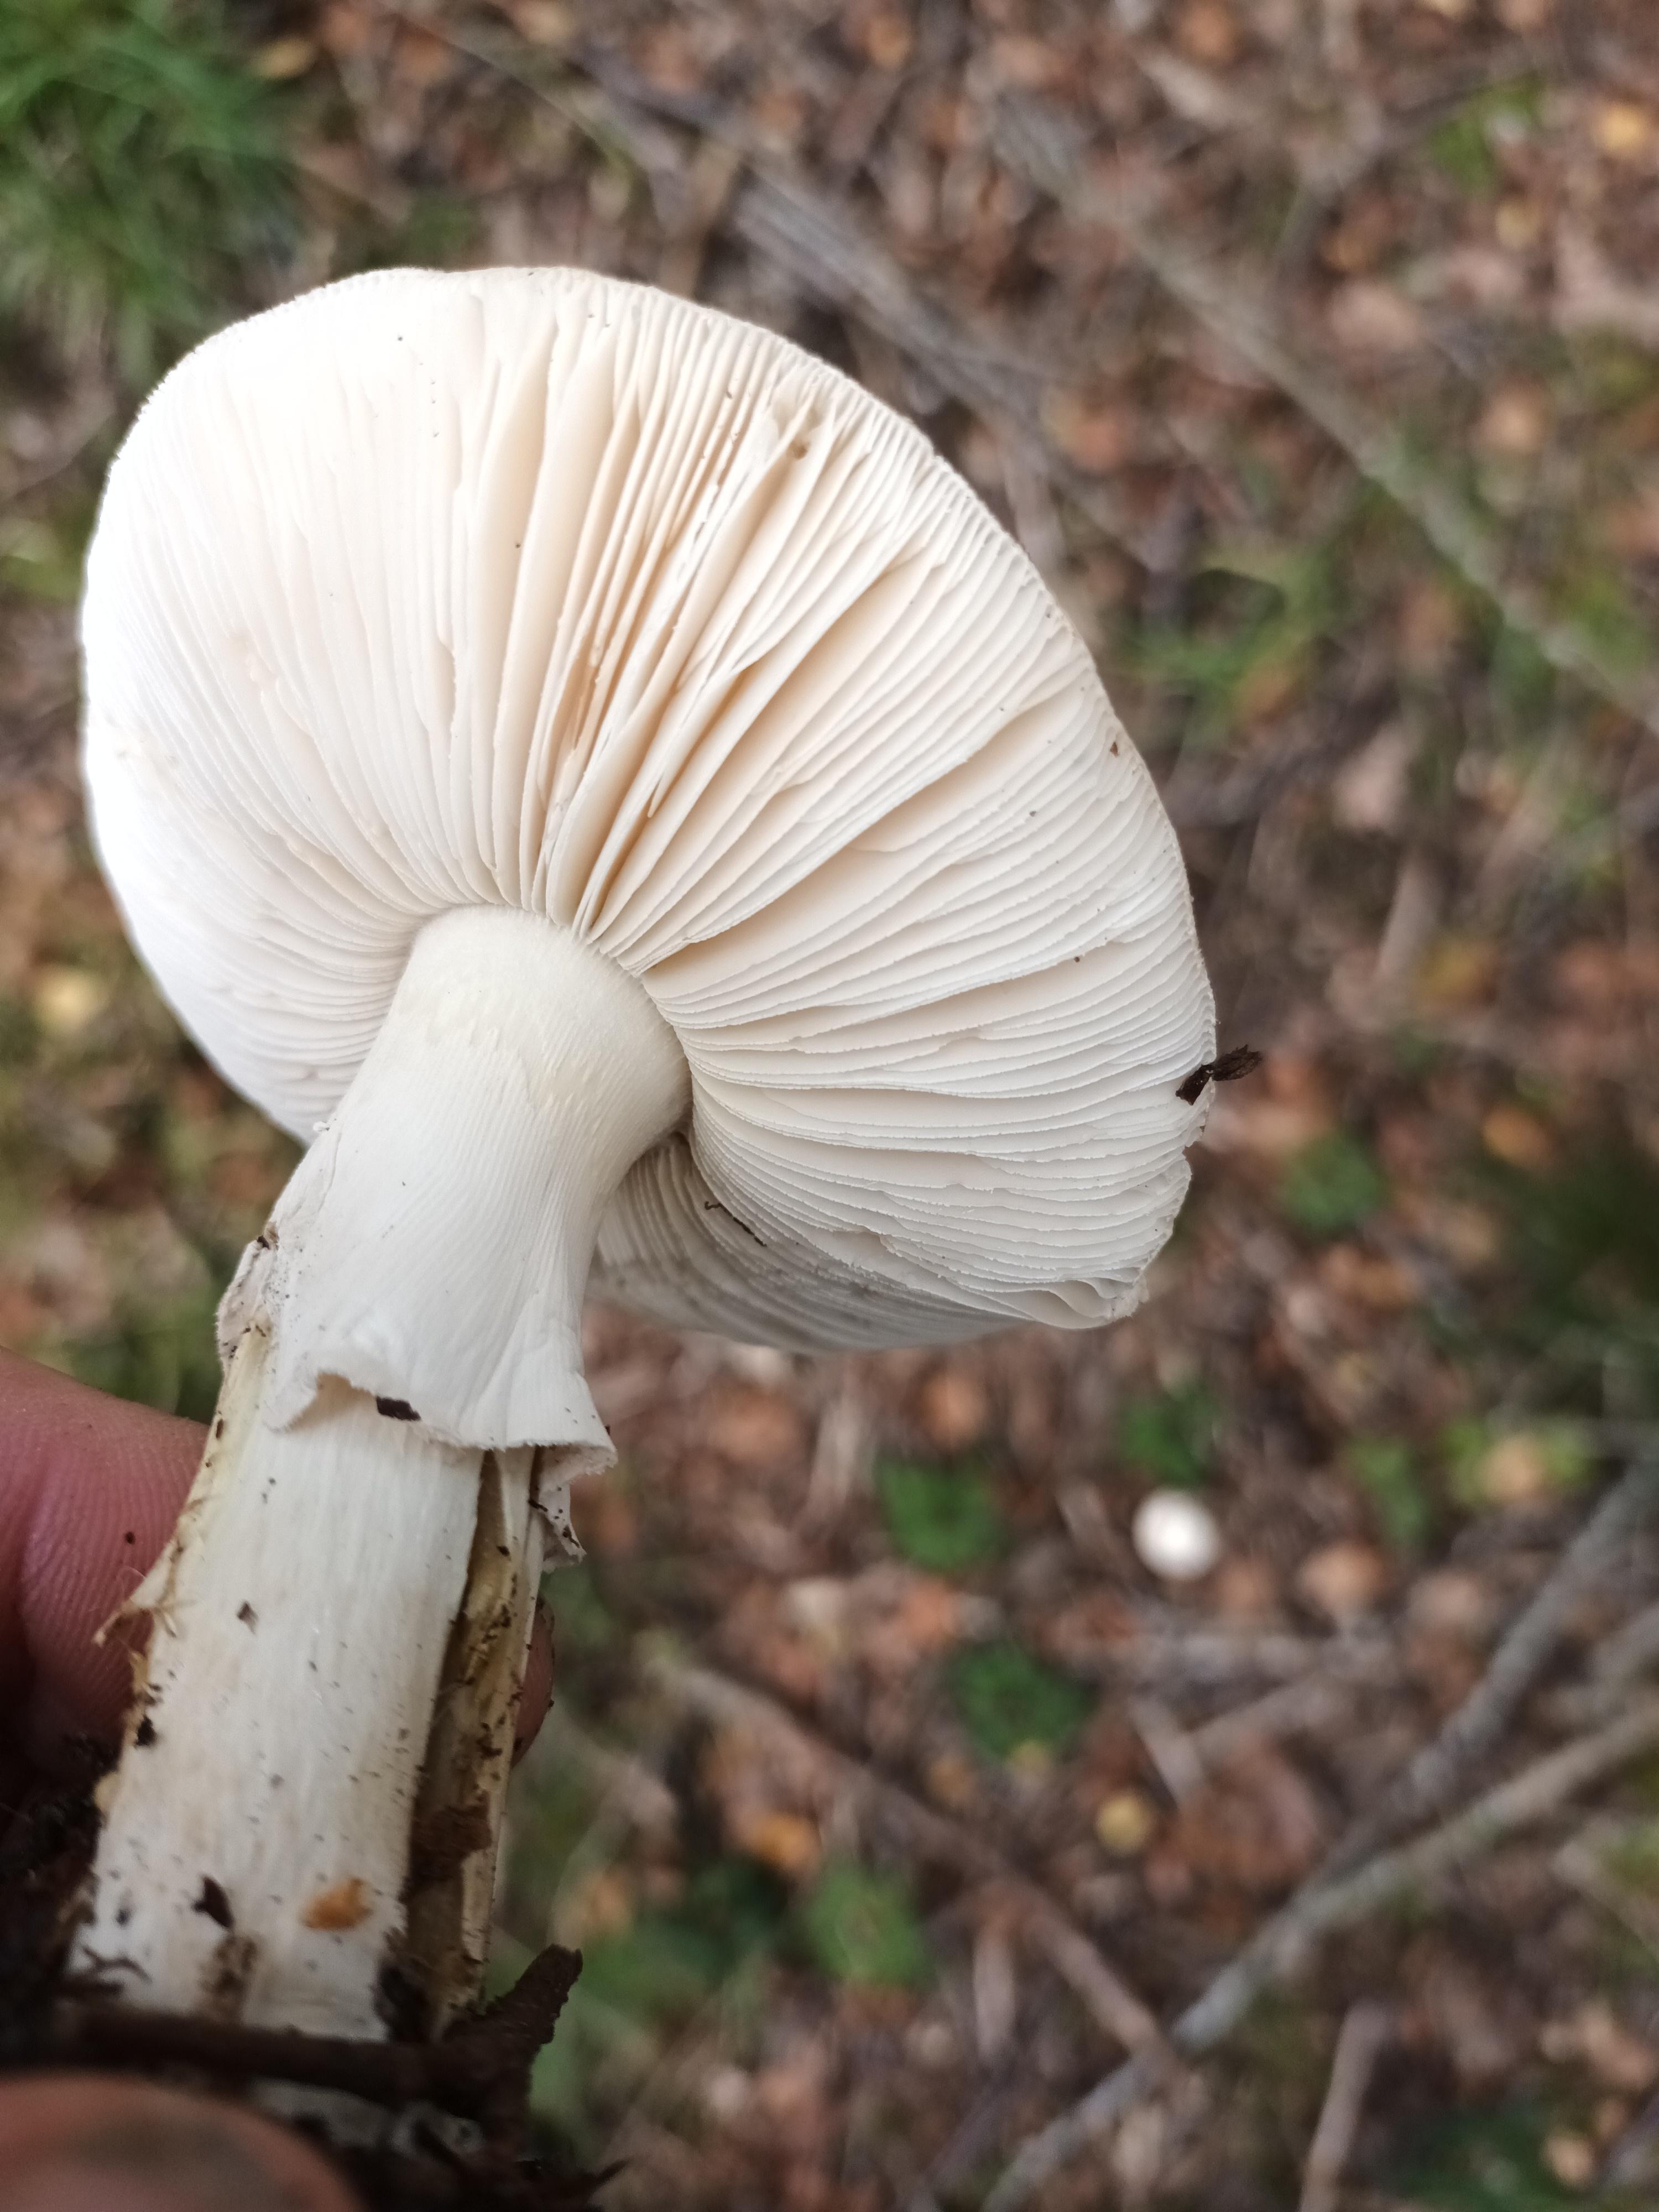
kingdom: Fungi
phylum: Basidiomycota
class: Agaricomycetes
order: Agaricales
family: Amanitaceae
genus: Amanita
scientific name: Amanita citrina
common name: kugleknoldet fluesvamp
